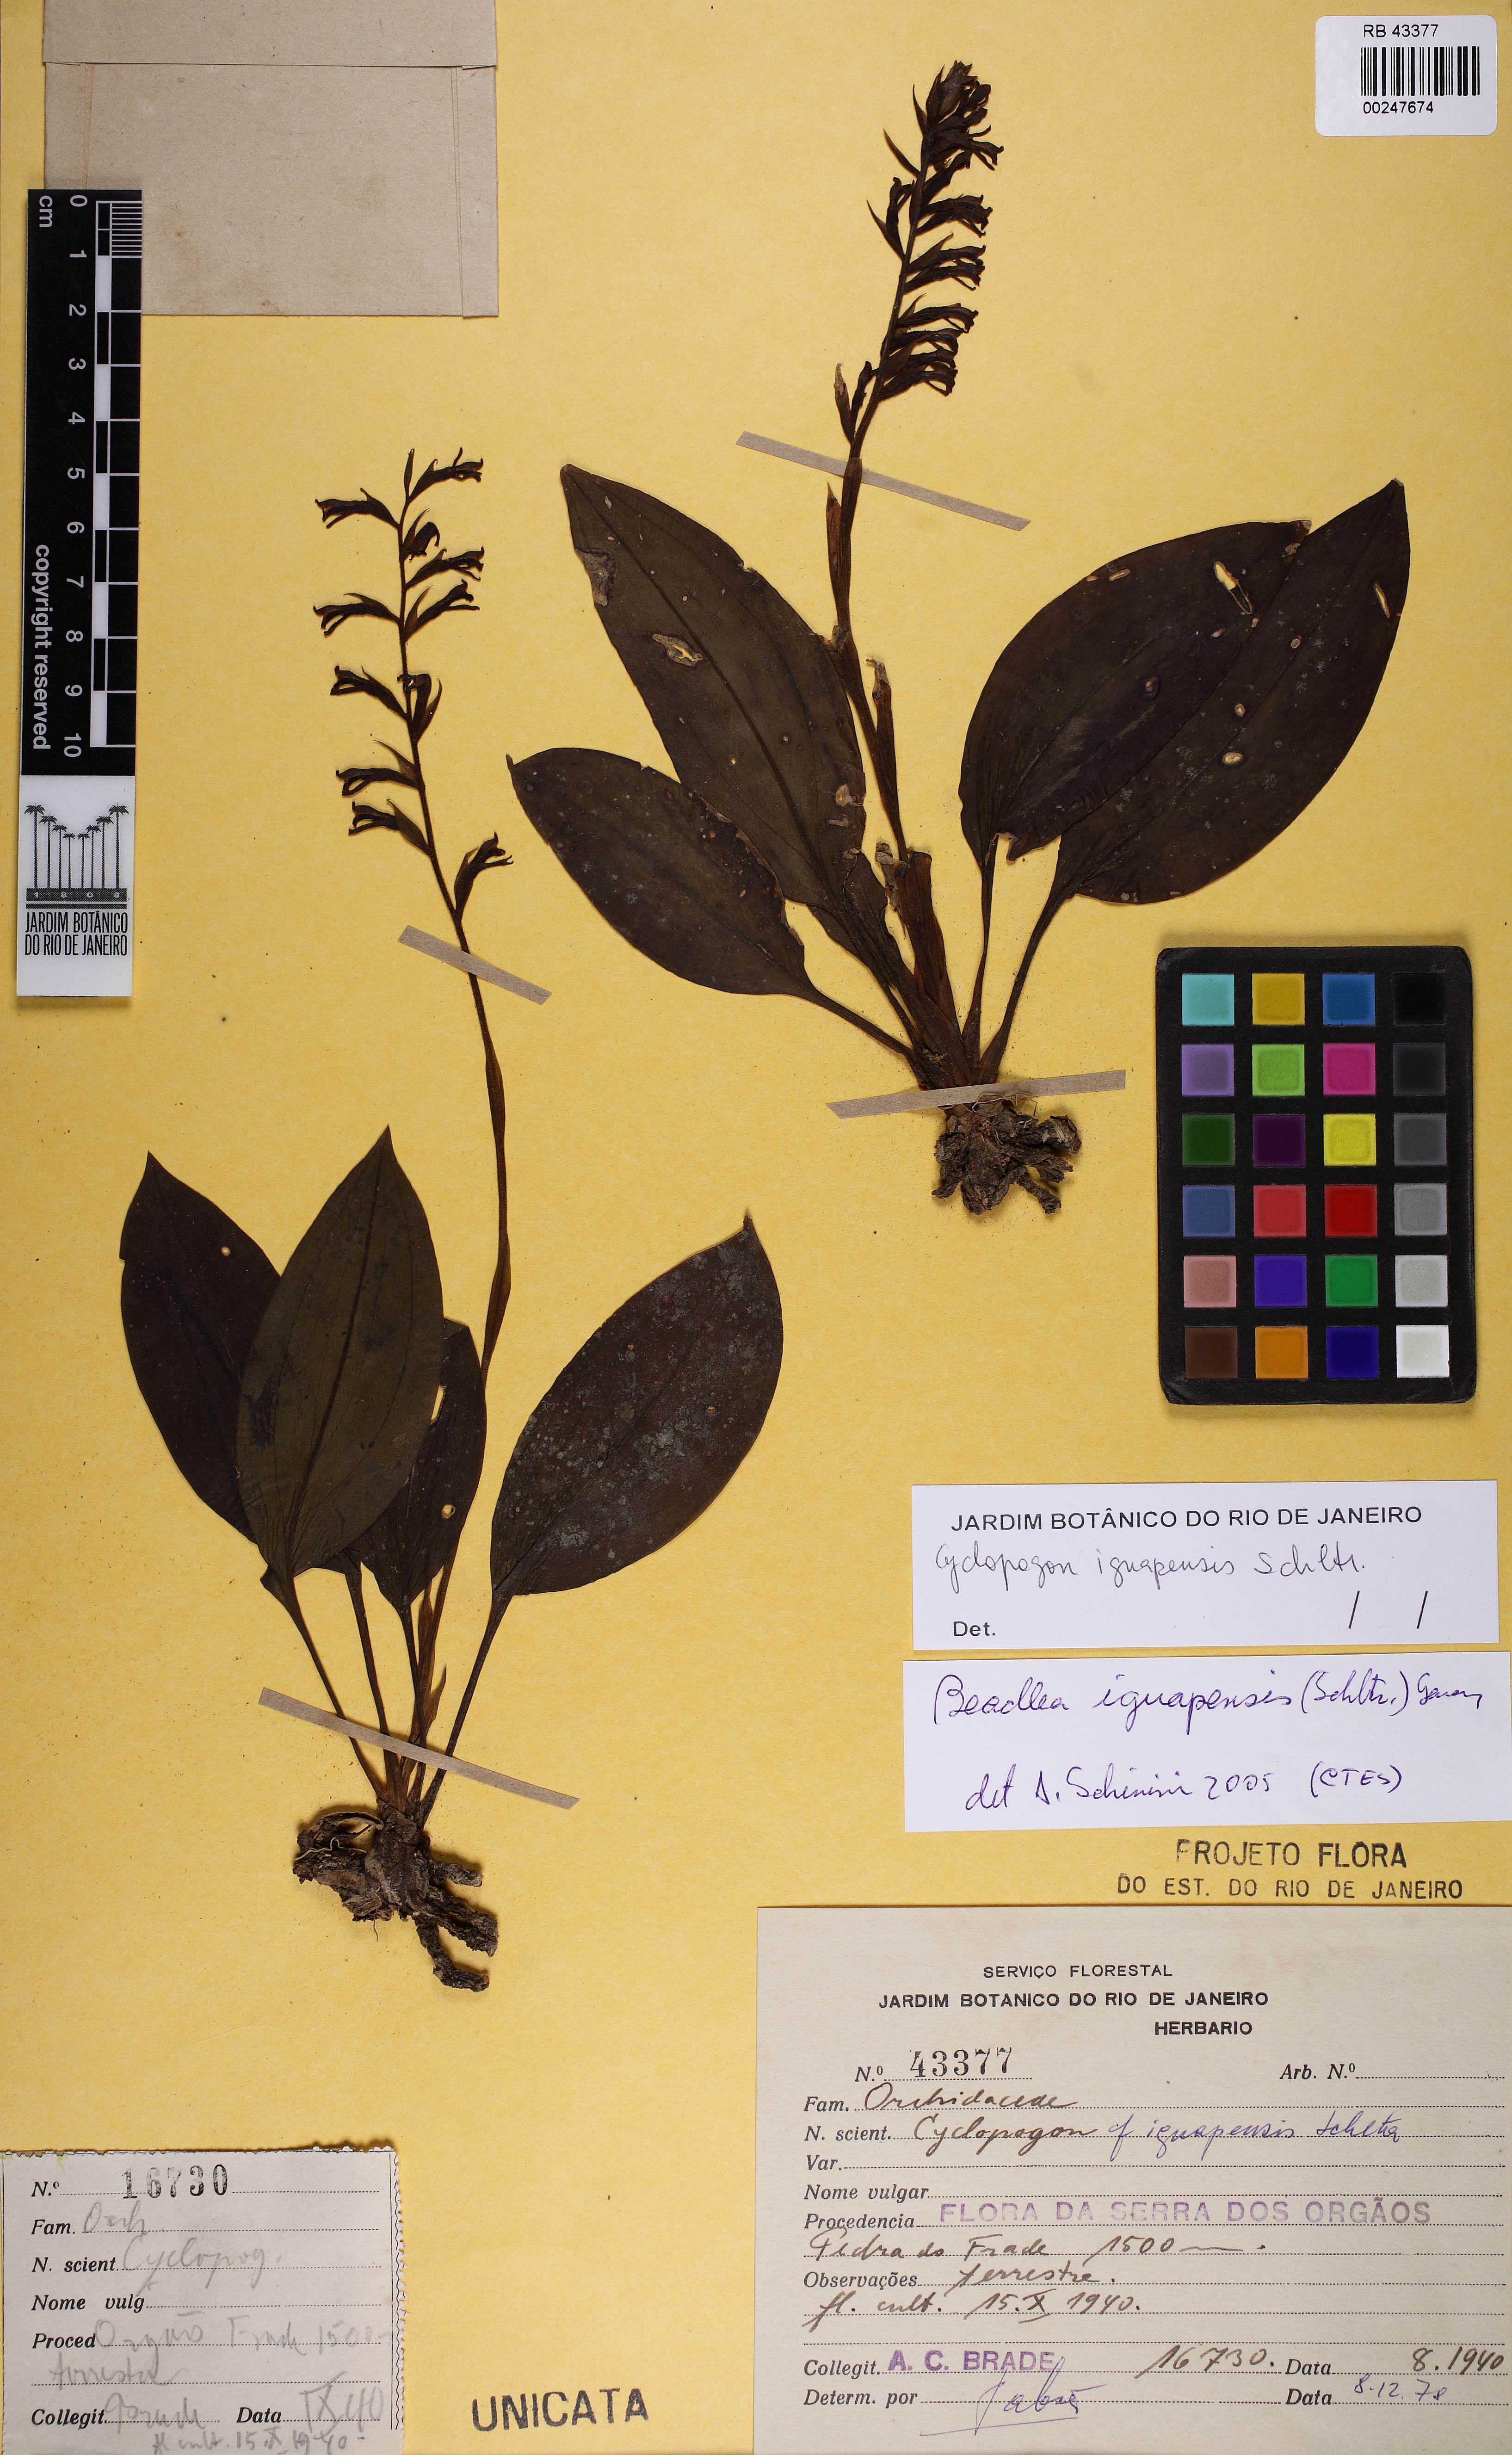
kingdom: Plantae
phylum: Tracheophyta
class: Liliopsida
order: Asparagales
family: Orchidaceae
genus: Cyclopogon
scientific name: Cyclopogon iguapensis
